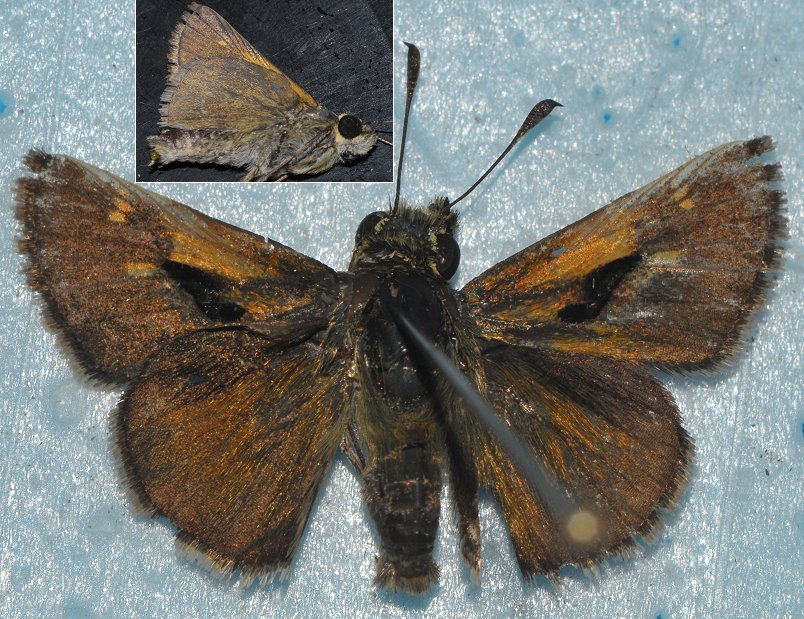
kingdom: Animalia
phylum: Arthropoda
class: Insecta
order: Lepidoptera
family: Hesperiidae
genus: Polites
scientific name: Polites themistocles
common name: Tawny-edged Skipper
